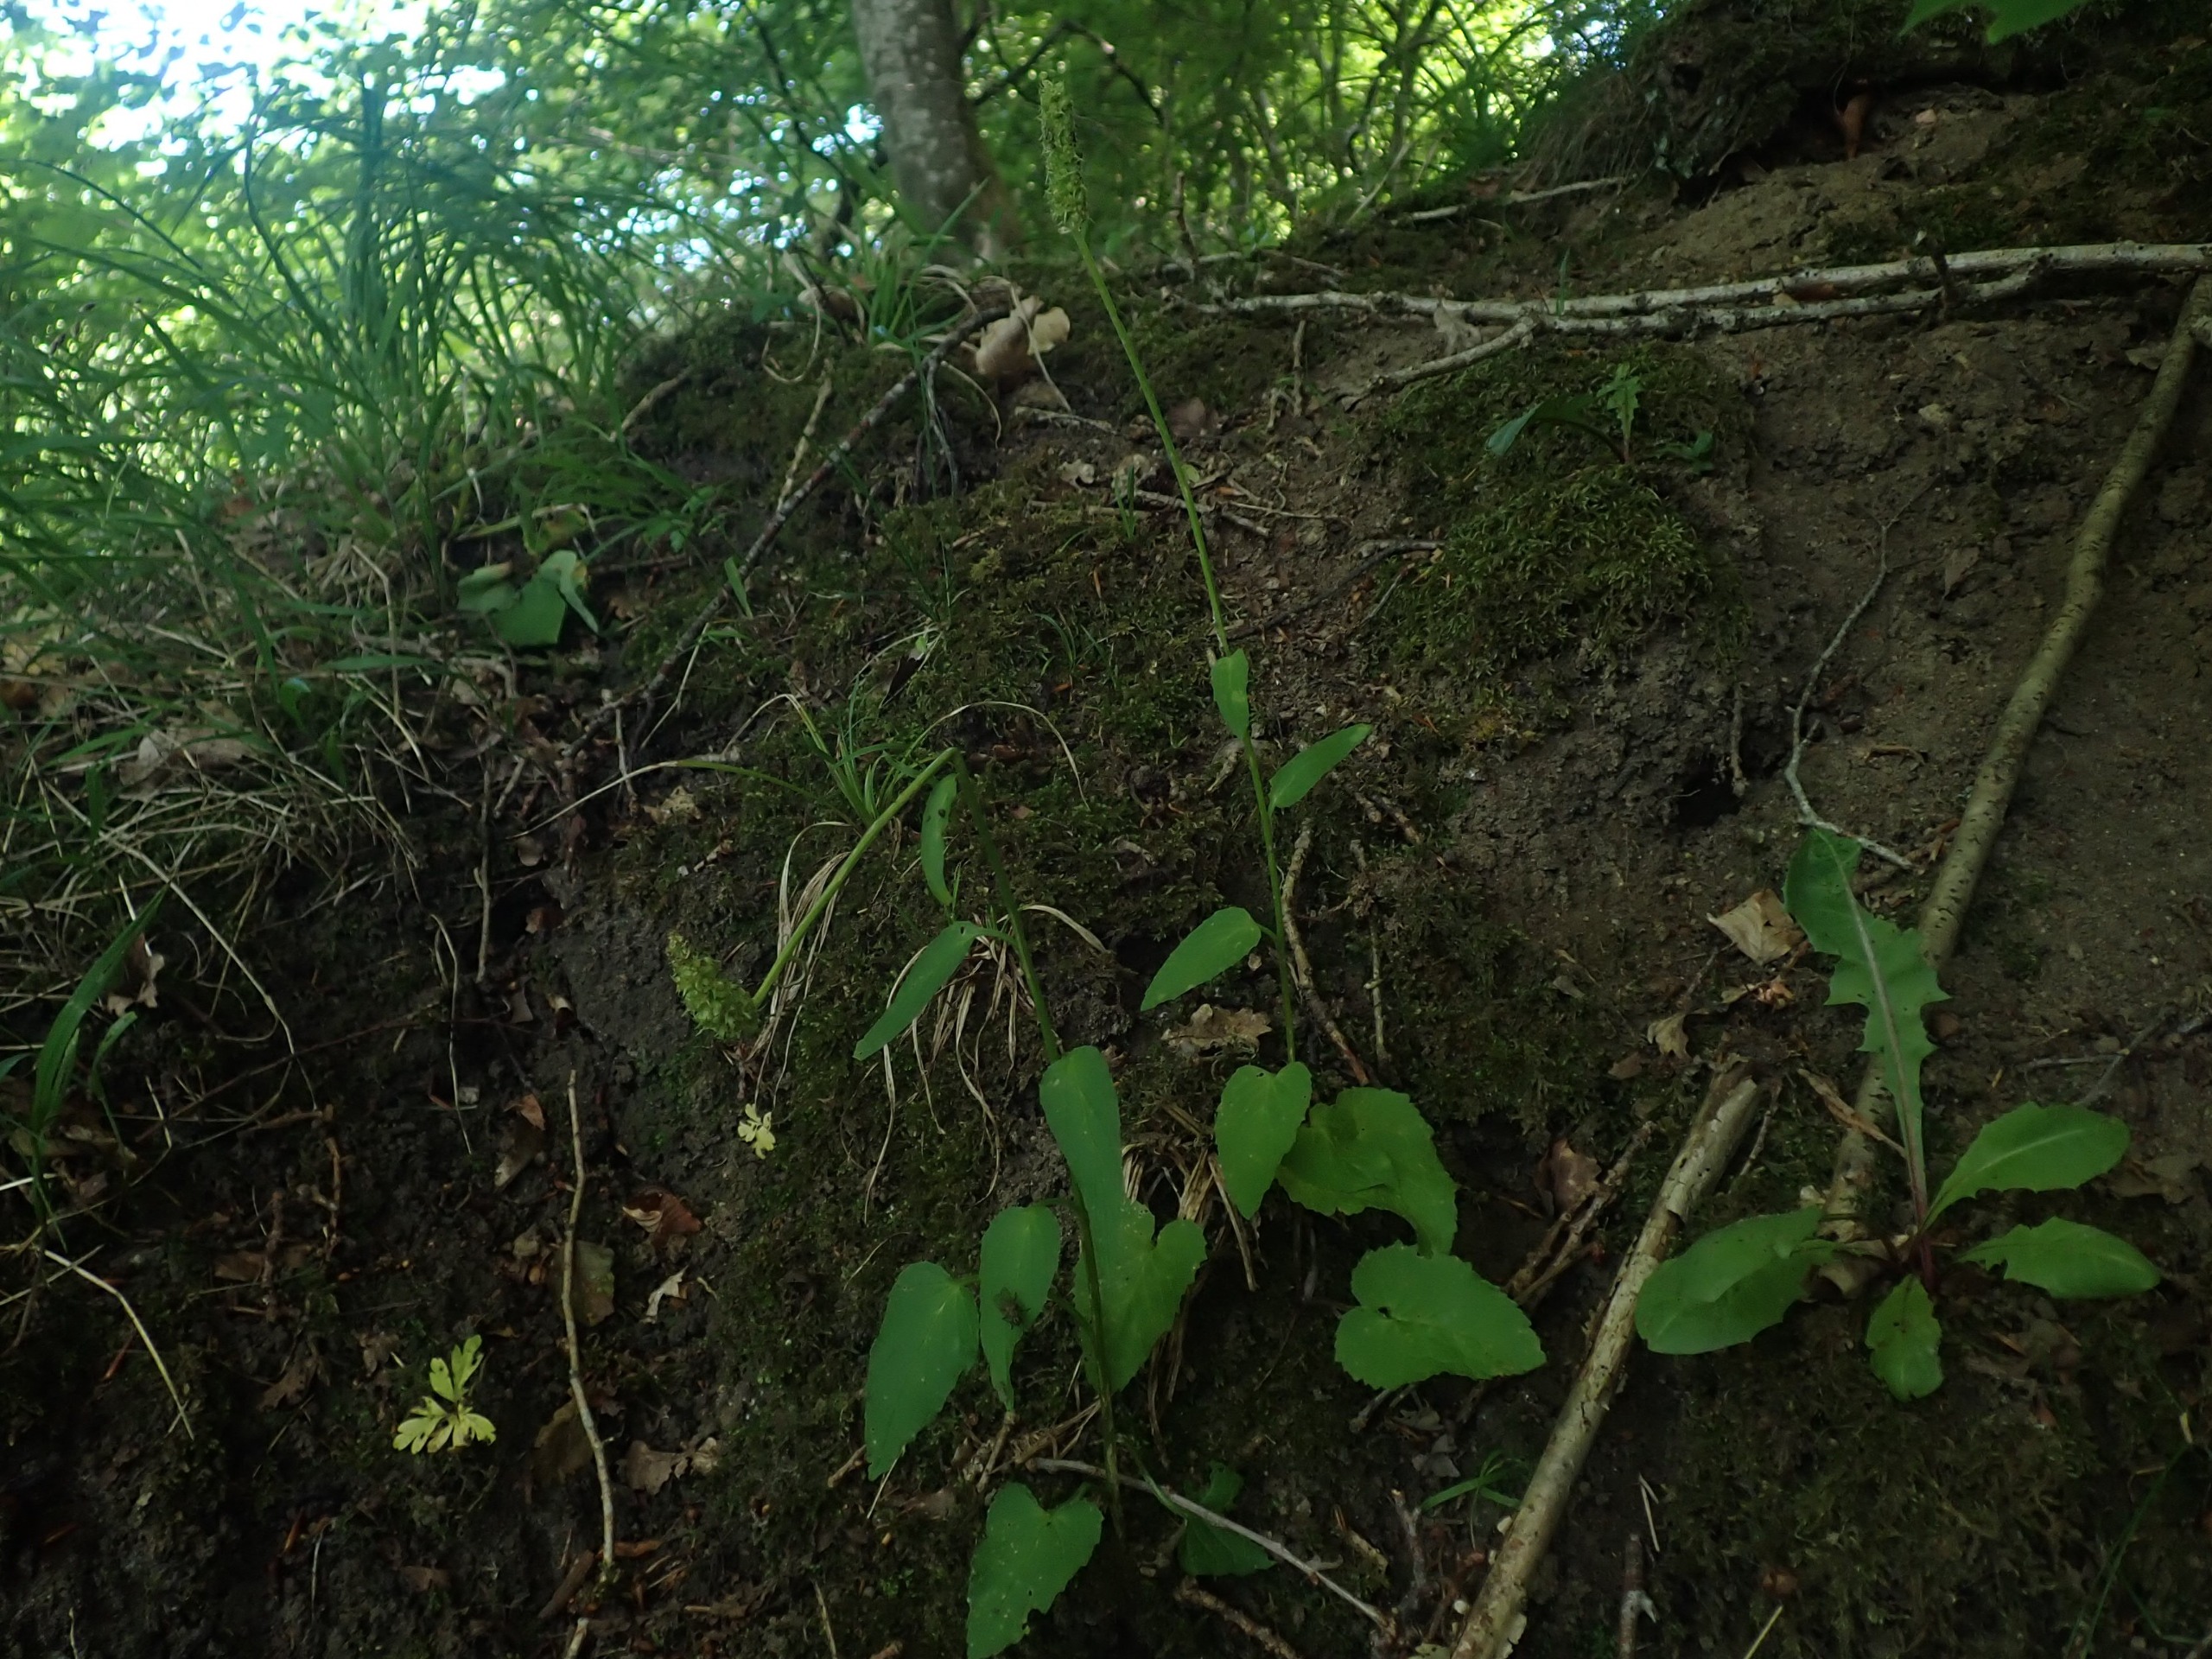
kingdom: Plantae
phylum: Tracheophyta
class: Magnoliopsida
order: Asterales
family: Campanulaceae
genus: Phyteuma
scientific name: Phyteuma spicatum
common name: Aks-rapunsel
